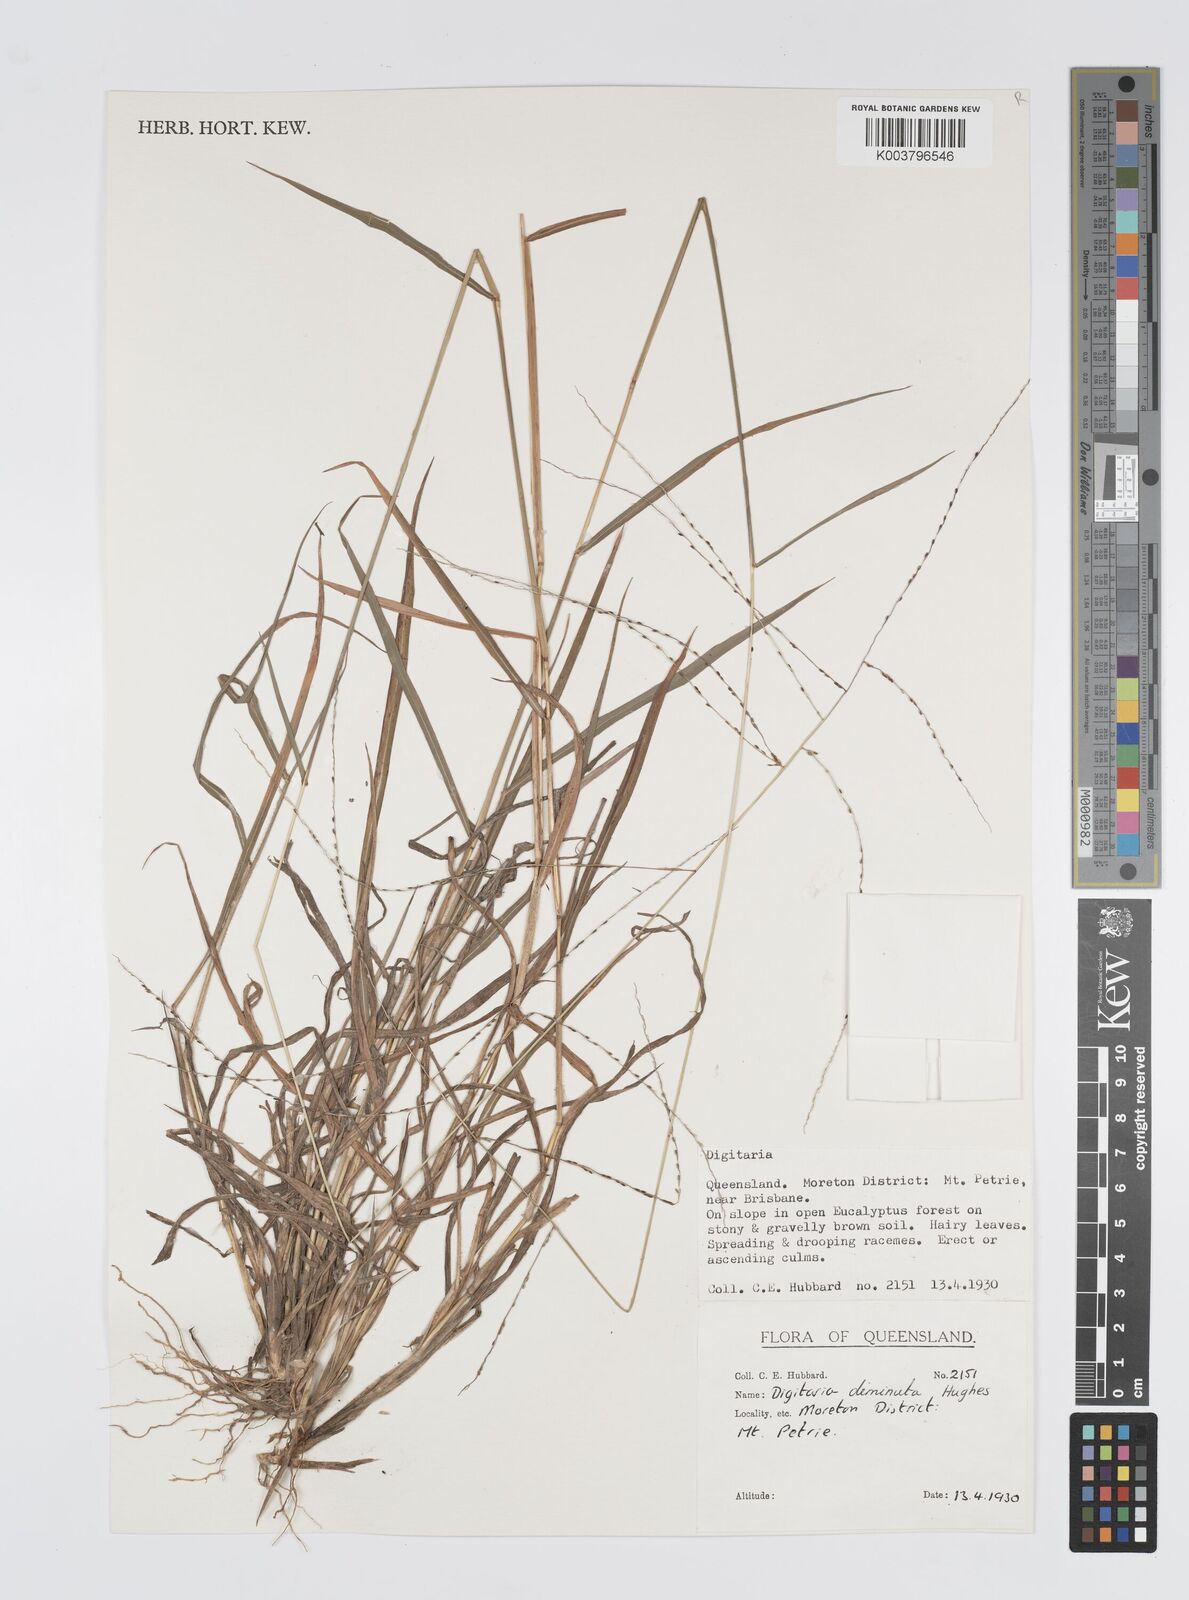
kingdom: Plantae
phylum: Tracheophyta
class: Liliopsida
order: Poales
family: Poaceae
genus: Digitaria
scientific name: Digitaria breviglumis
